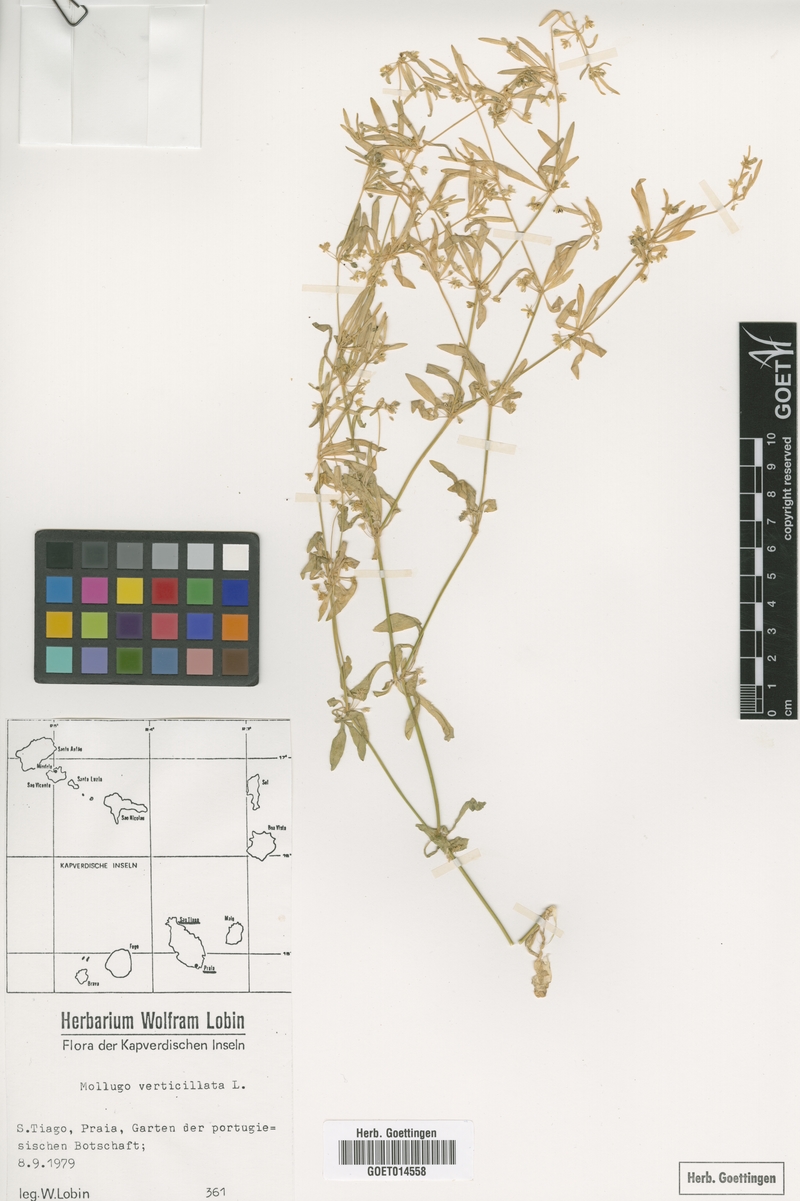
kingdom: Plantae
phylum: Tracheophyta
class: Magnoliopsida
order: Caryophyllales
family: Molluginaceae
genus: Mollugo
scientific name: Mollugo verticillata
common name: Green carpetweed
